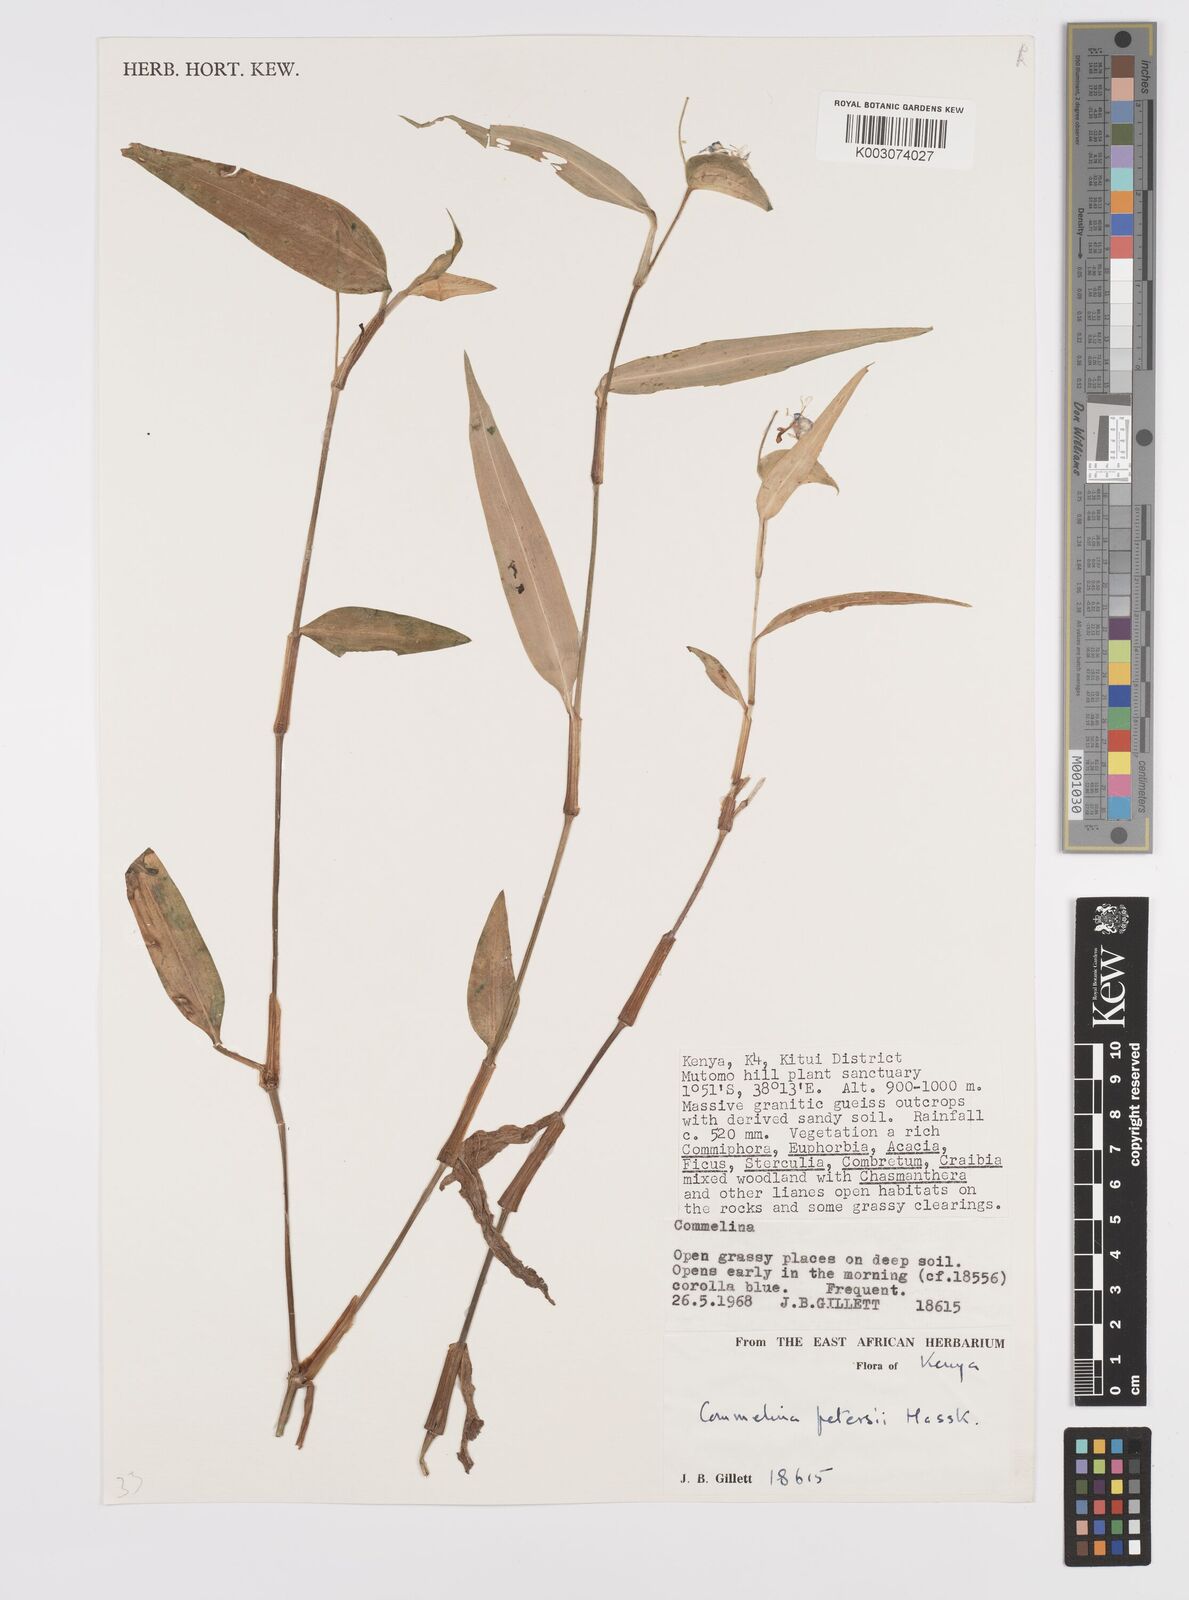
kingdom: Plantae
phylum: Tracheophyta
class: Liliopsida
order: Commelinales
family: Commelinaceae
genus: Commelina
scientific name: Commelina petersii
